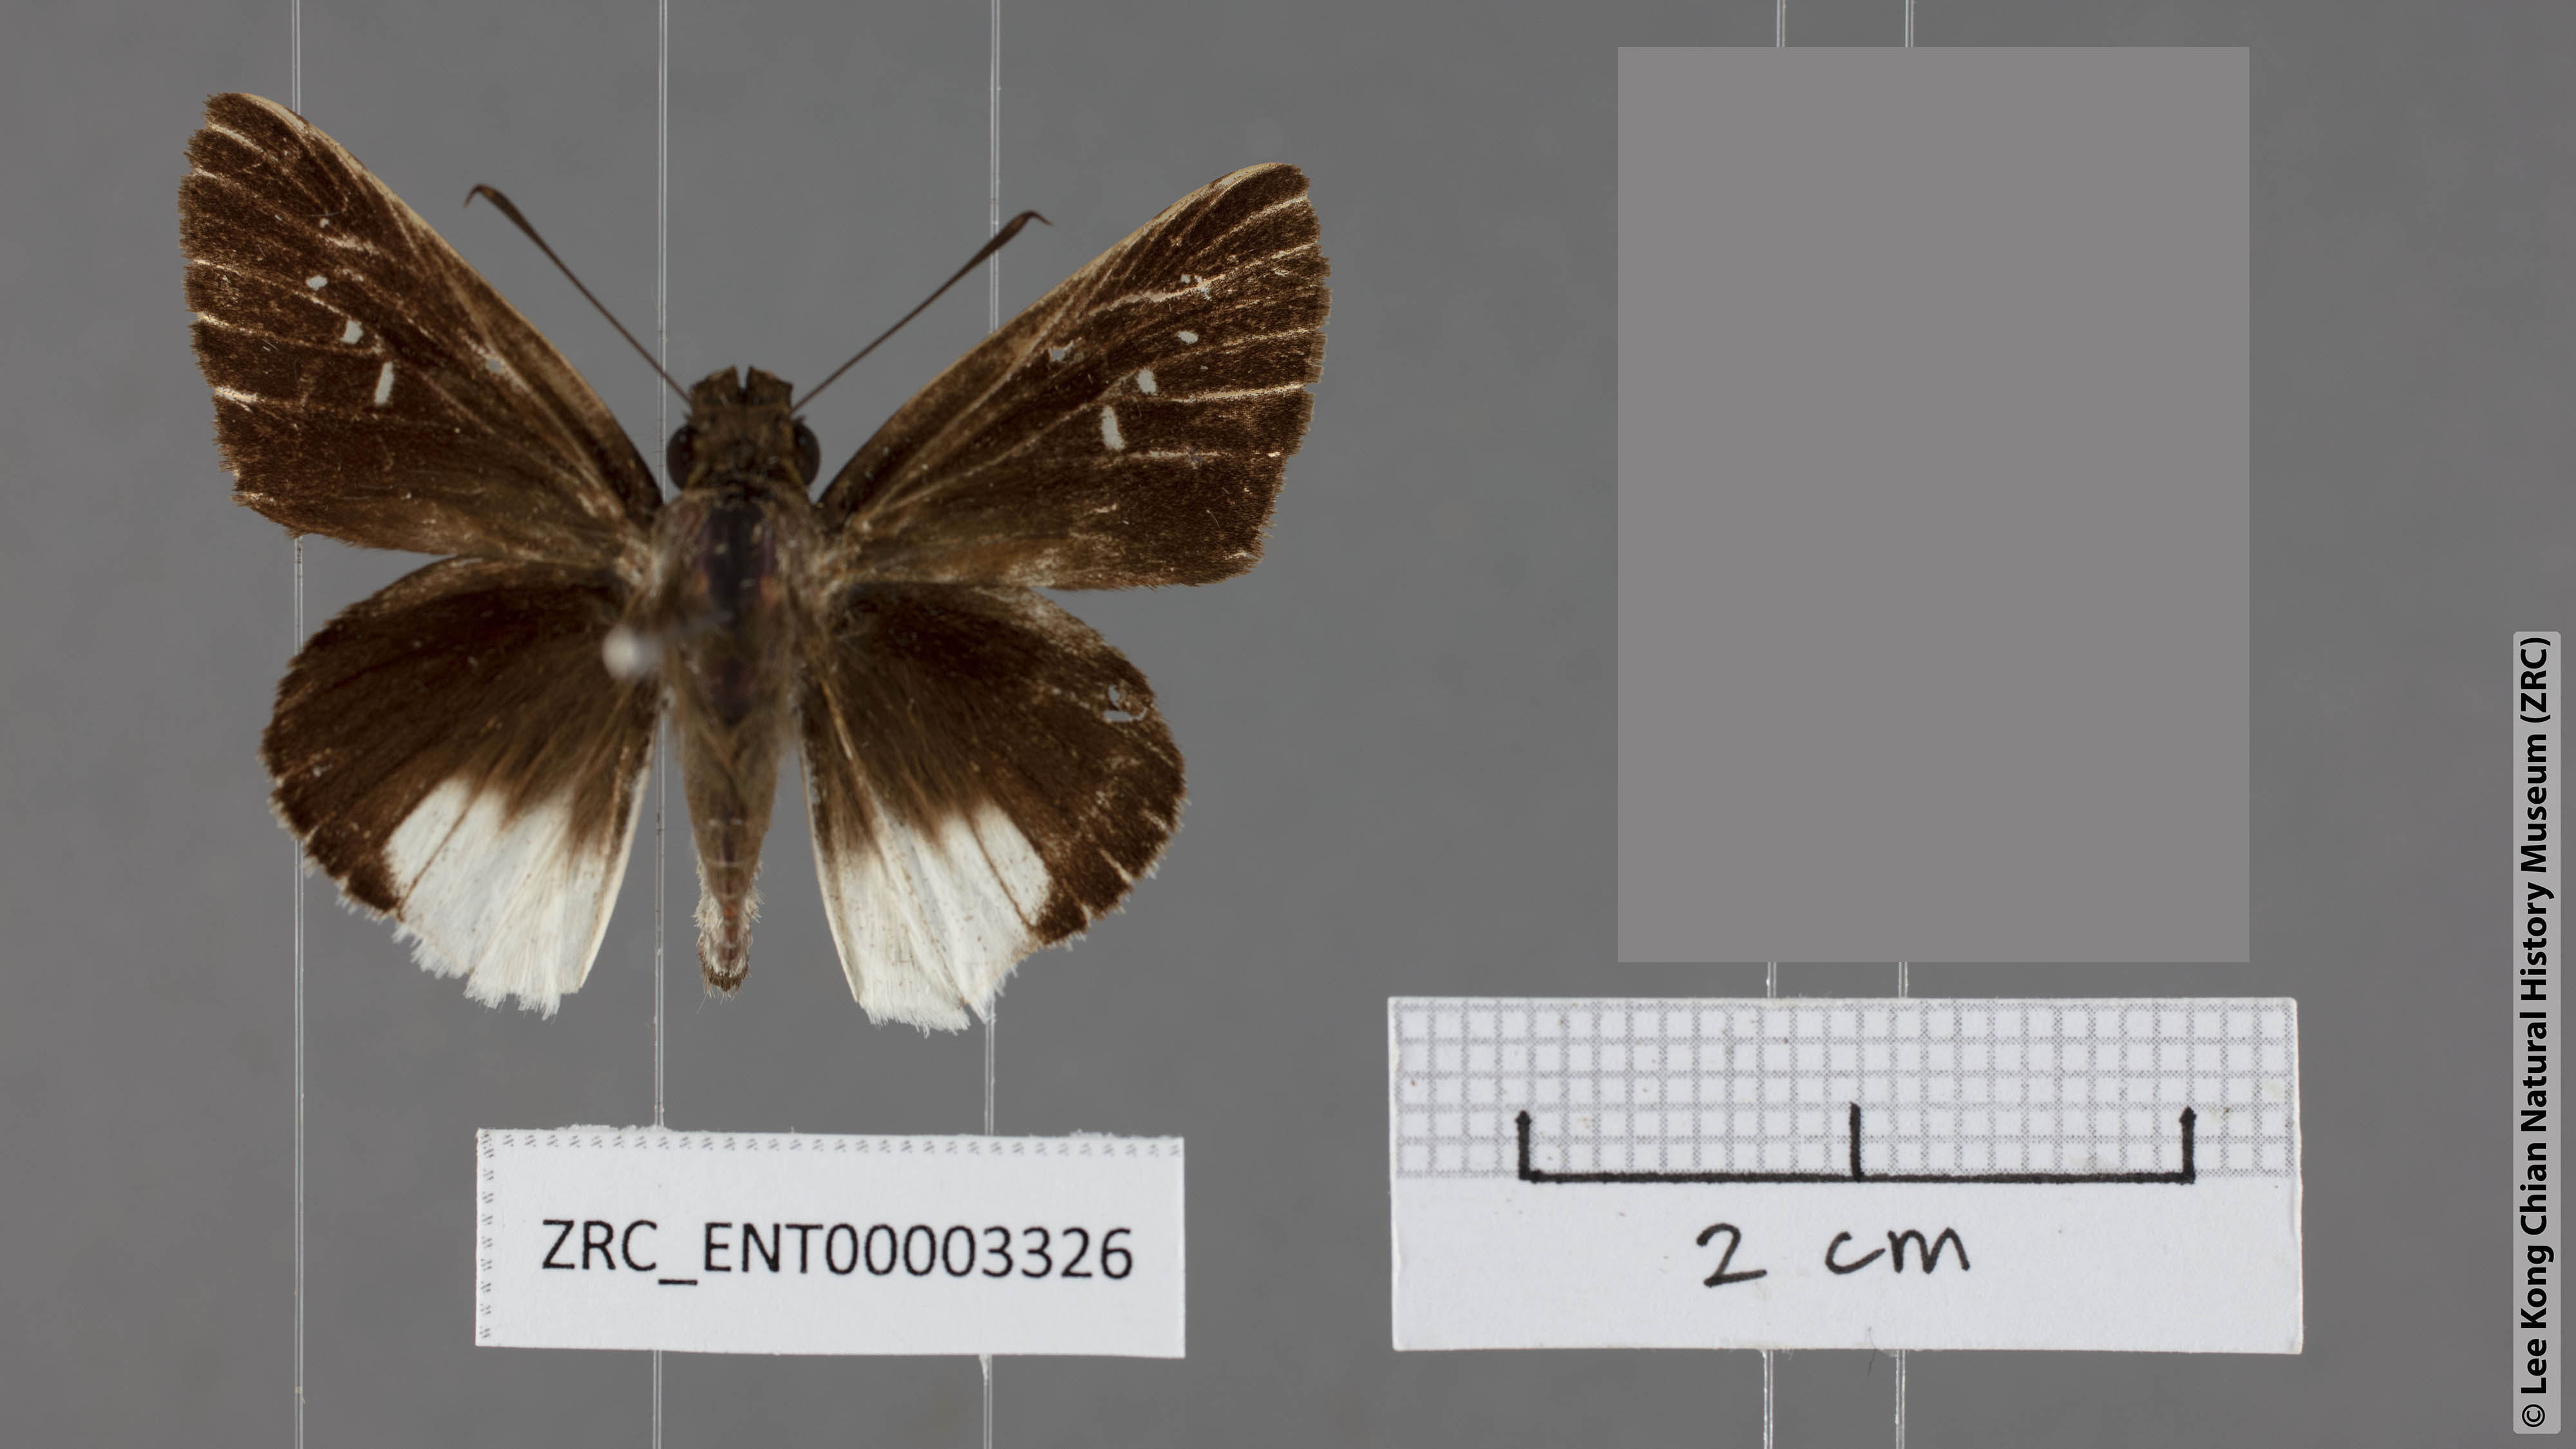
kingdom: Animalia
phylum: Arthropoda
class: Insecta
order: Lepidoptera
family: Hesperiidae
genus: Iton
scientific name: Iton semamora
